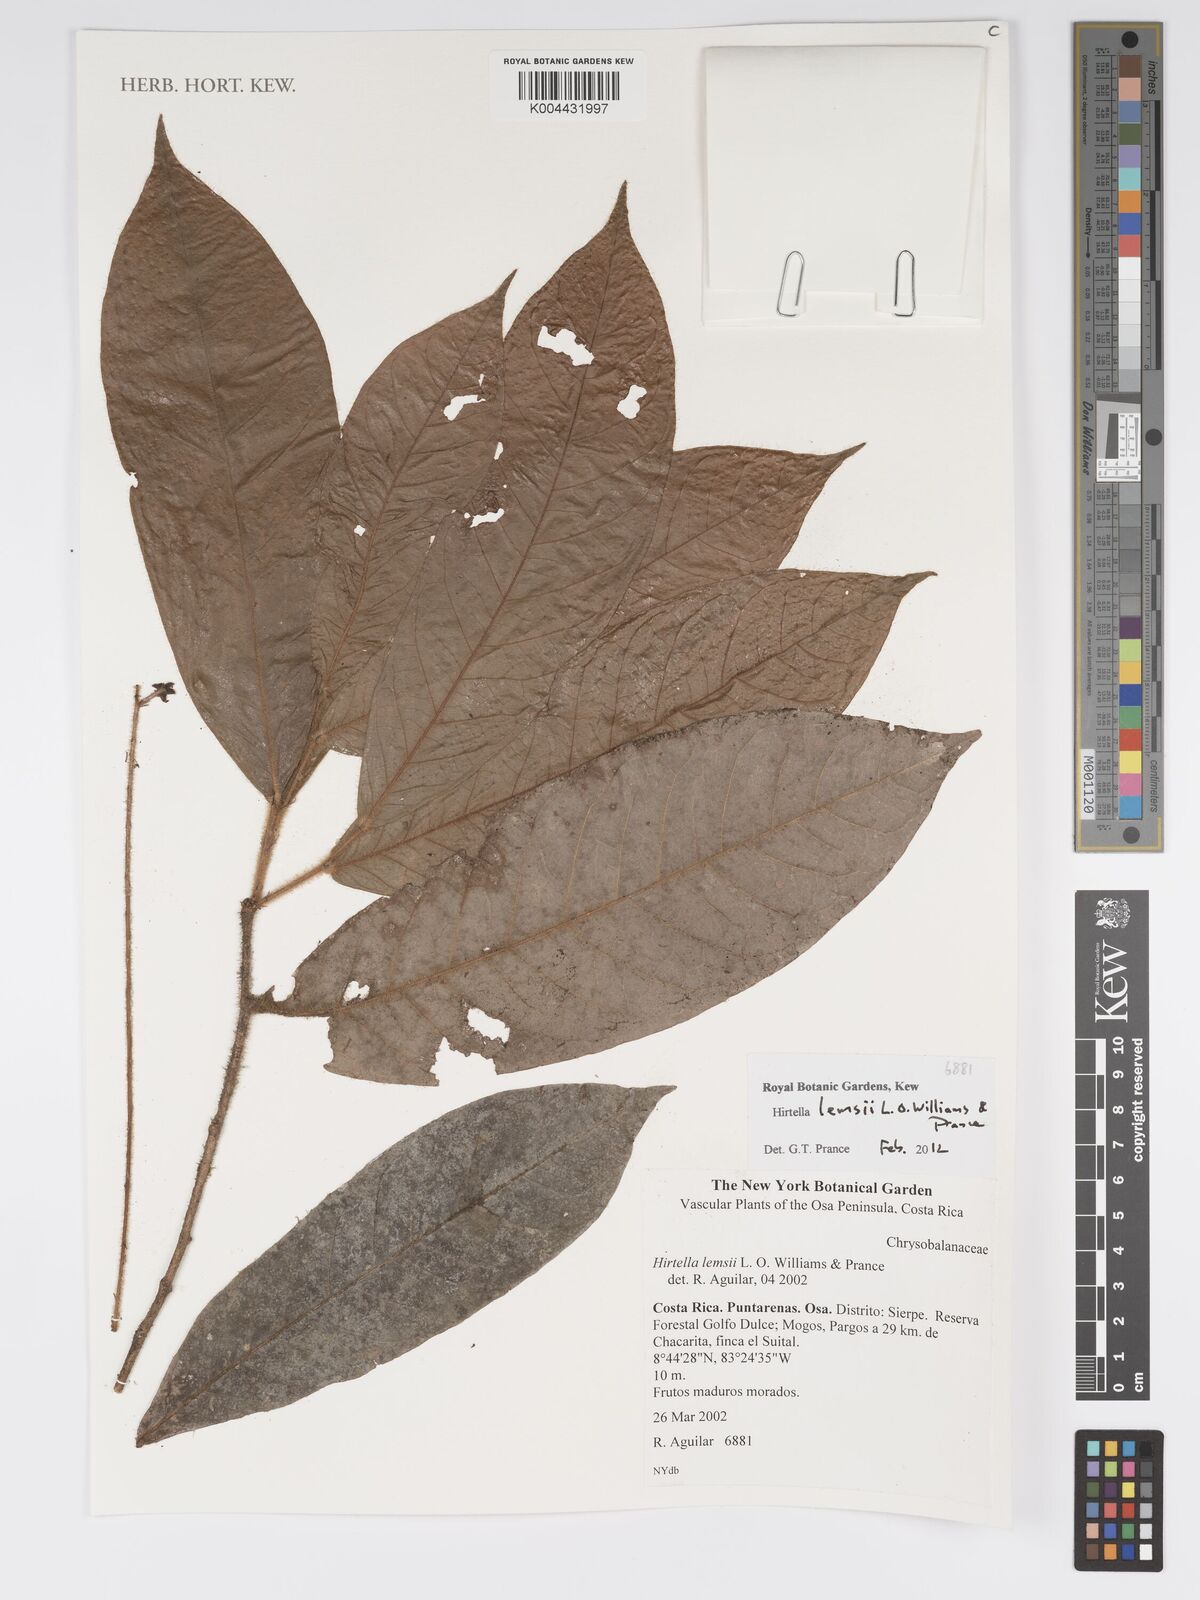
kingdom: Plantae
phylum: Tracheophyta
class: Magnoliopsida
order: Malpighiales
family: Chrysobalanaceae
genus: Hirtella
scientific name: Hirtella lemsii
